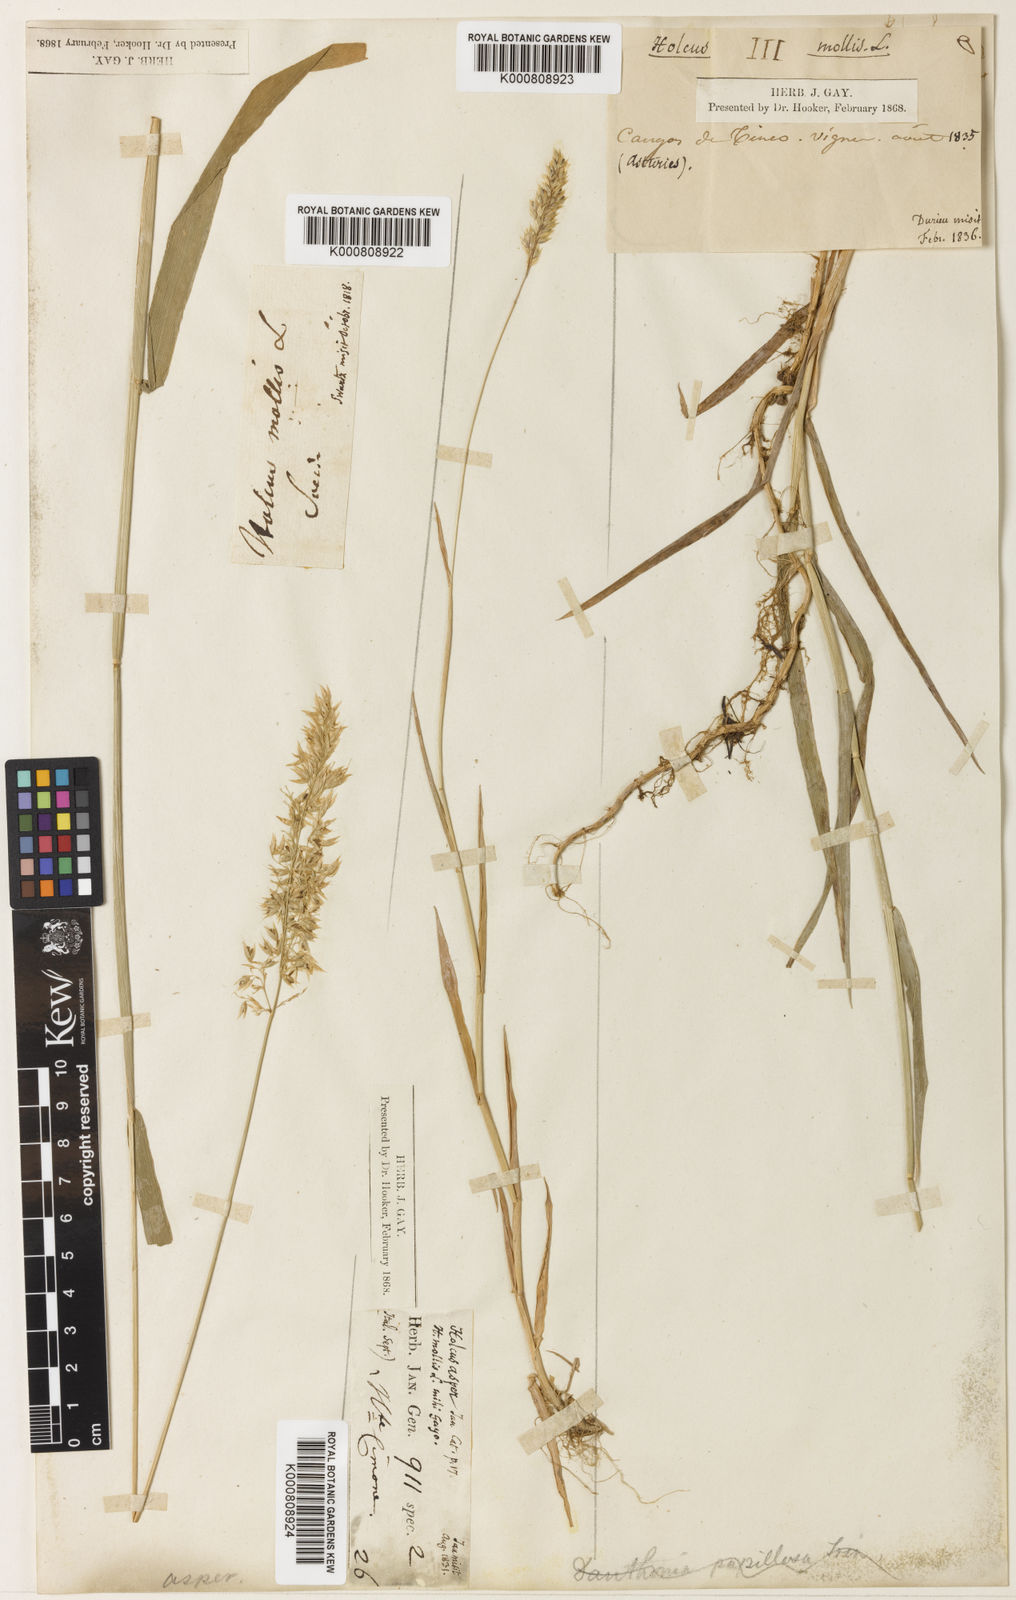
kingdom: Plantae
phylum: Tracheophyta
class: Liliopsida
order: Poales
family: Poaceae
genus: Holcus
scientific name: Holcus mollis
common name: Creeping velvetgrass
